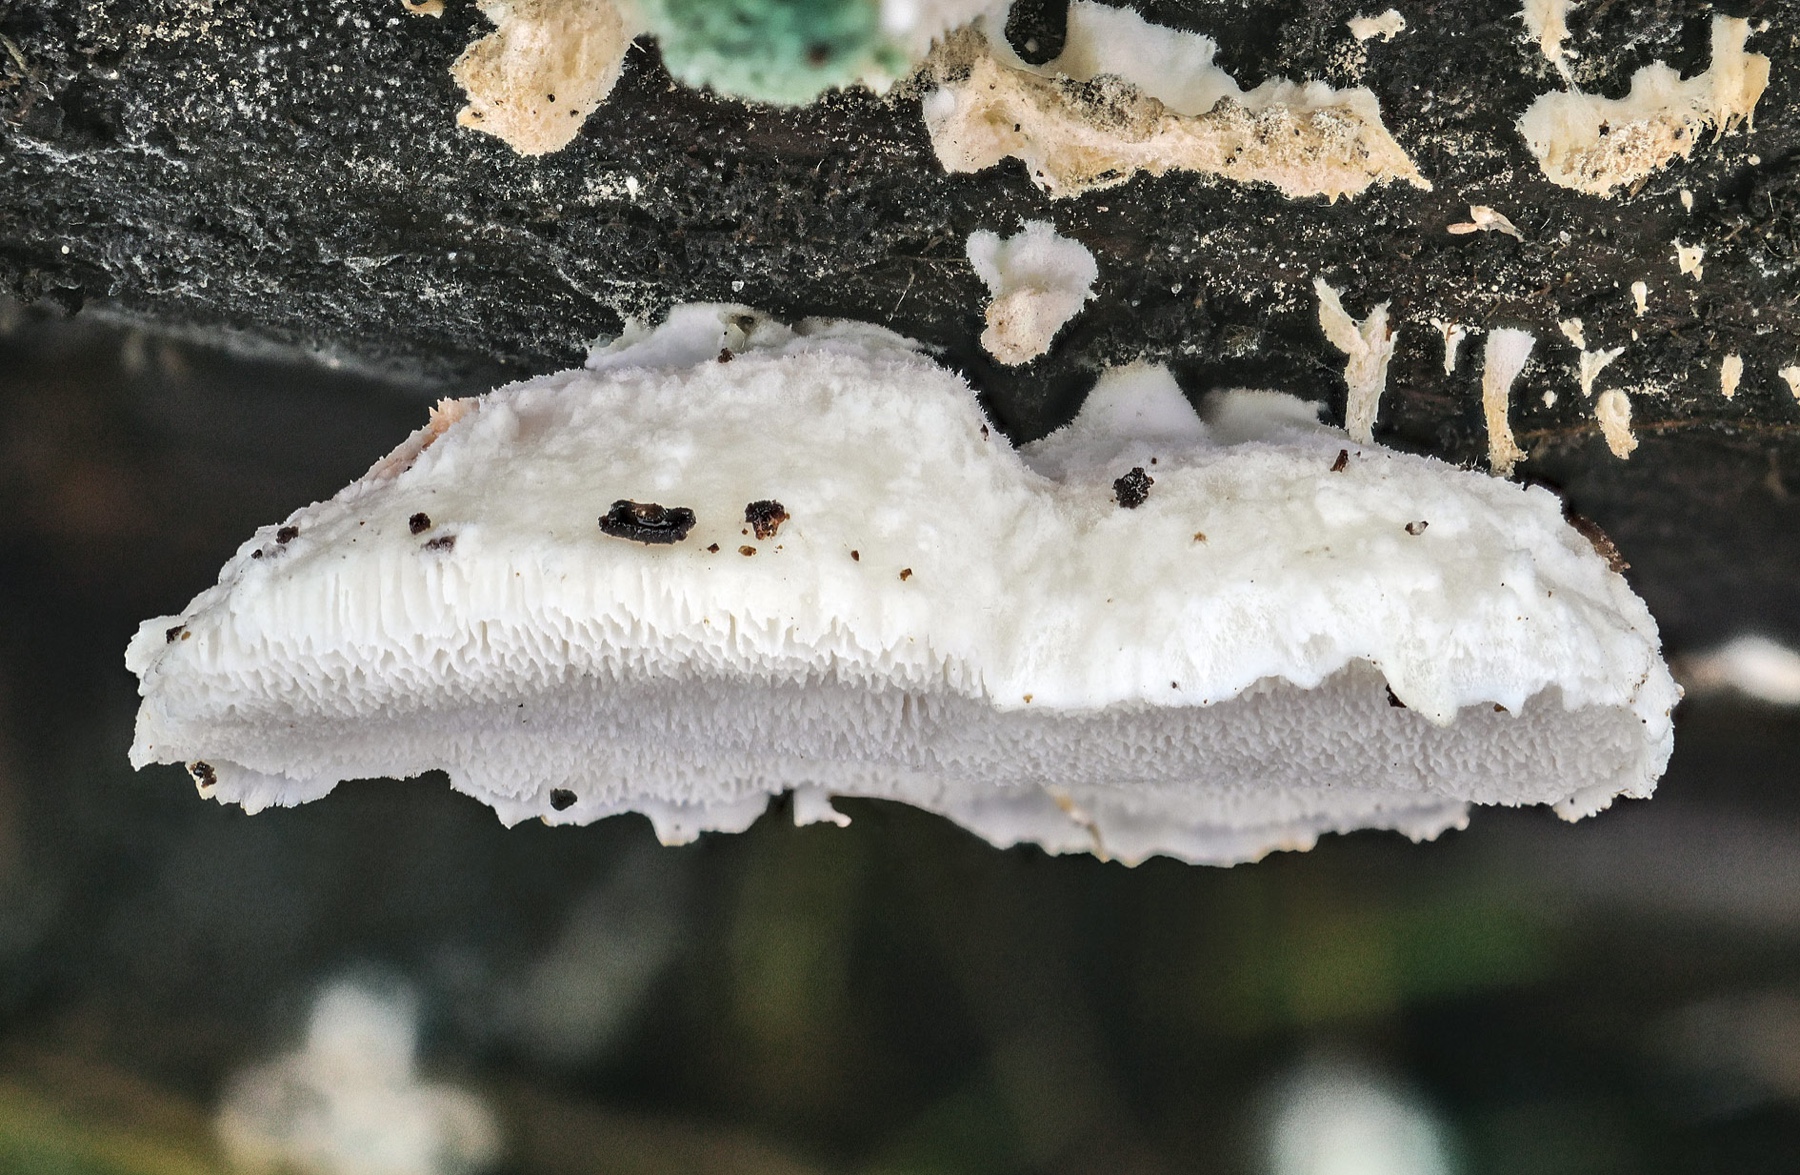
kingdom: Fungi
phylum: Basidiomycota
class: Agaricomycetes
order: Polyporales
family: Dacryobolaceae
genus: Postia
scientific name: Postia ceriflua
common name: hængende kødporesvamp
